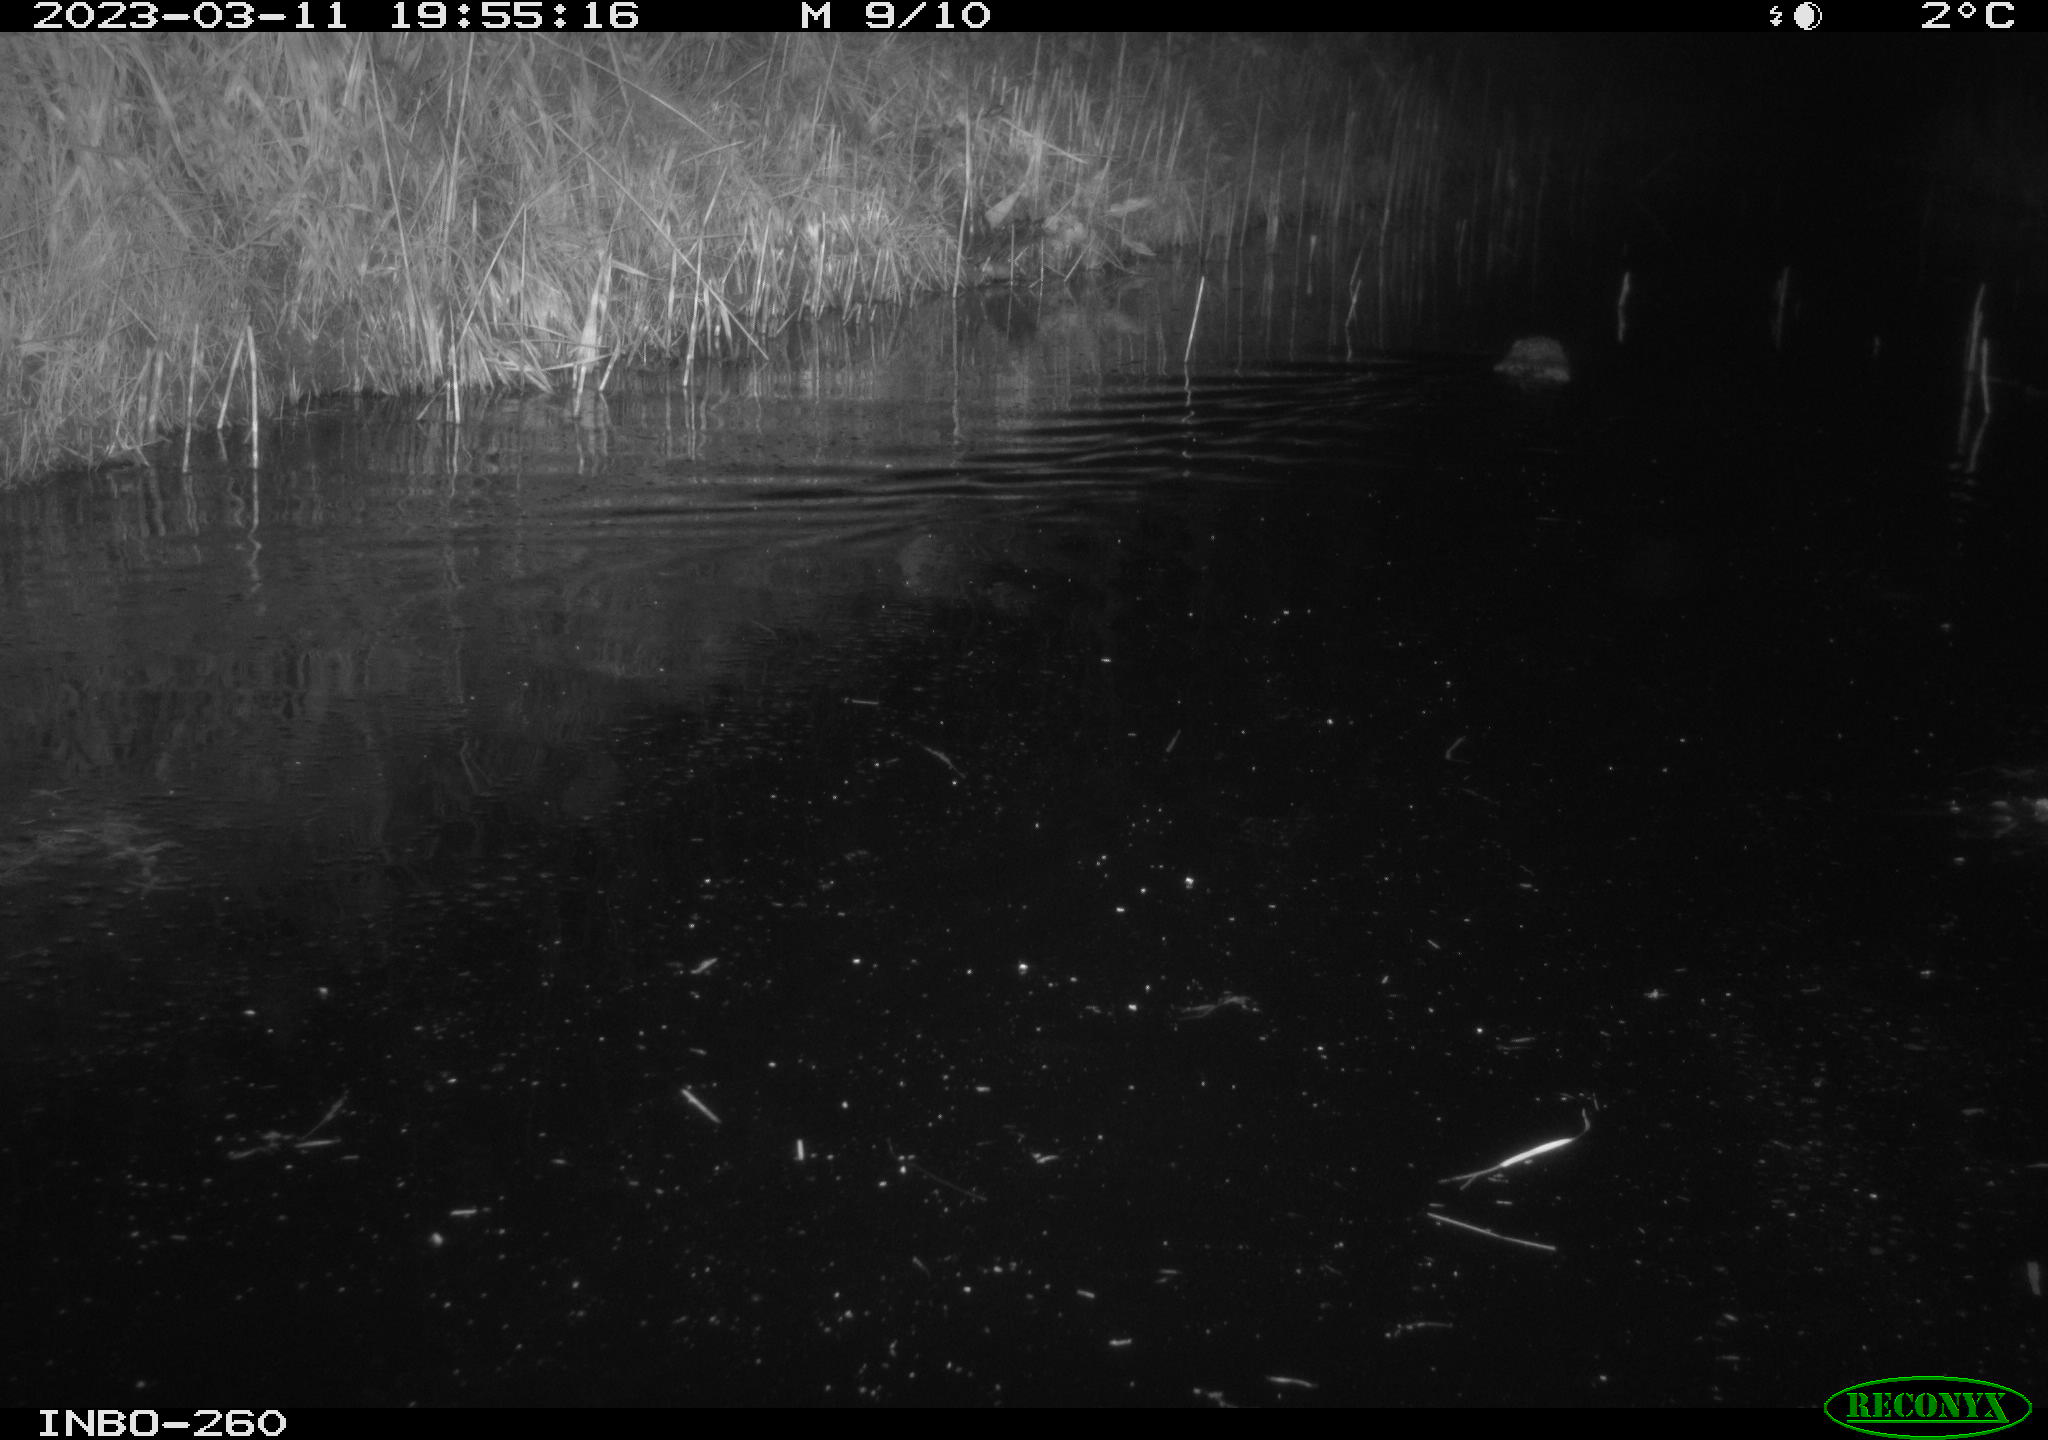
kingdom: Animalia
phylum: Chordata
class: Mammalia
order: Rodentia
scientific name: Rodentia
